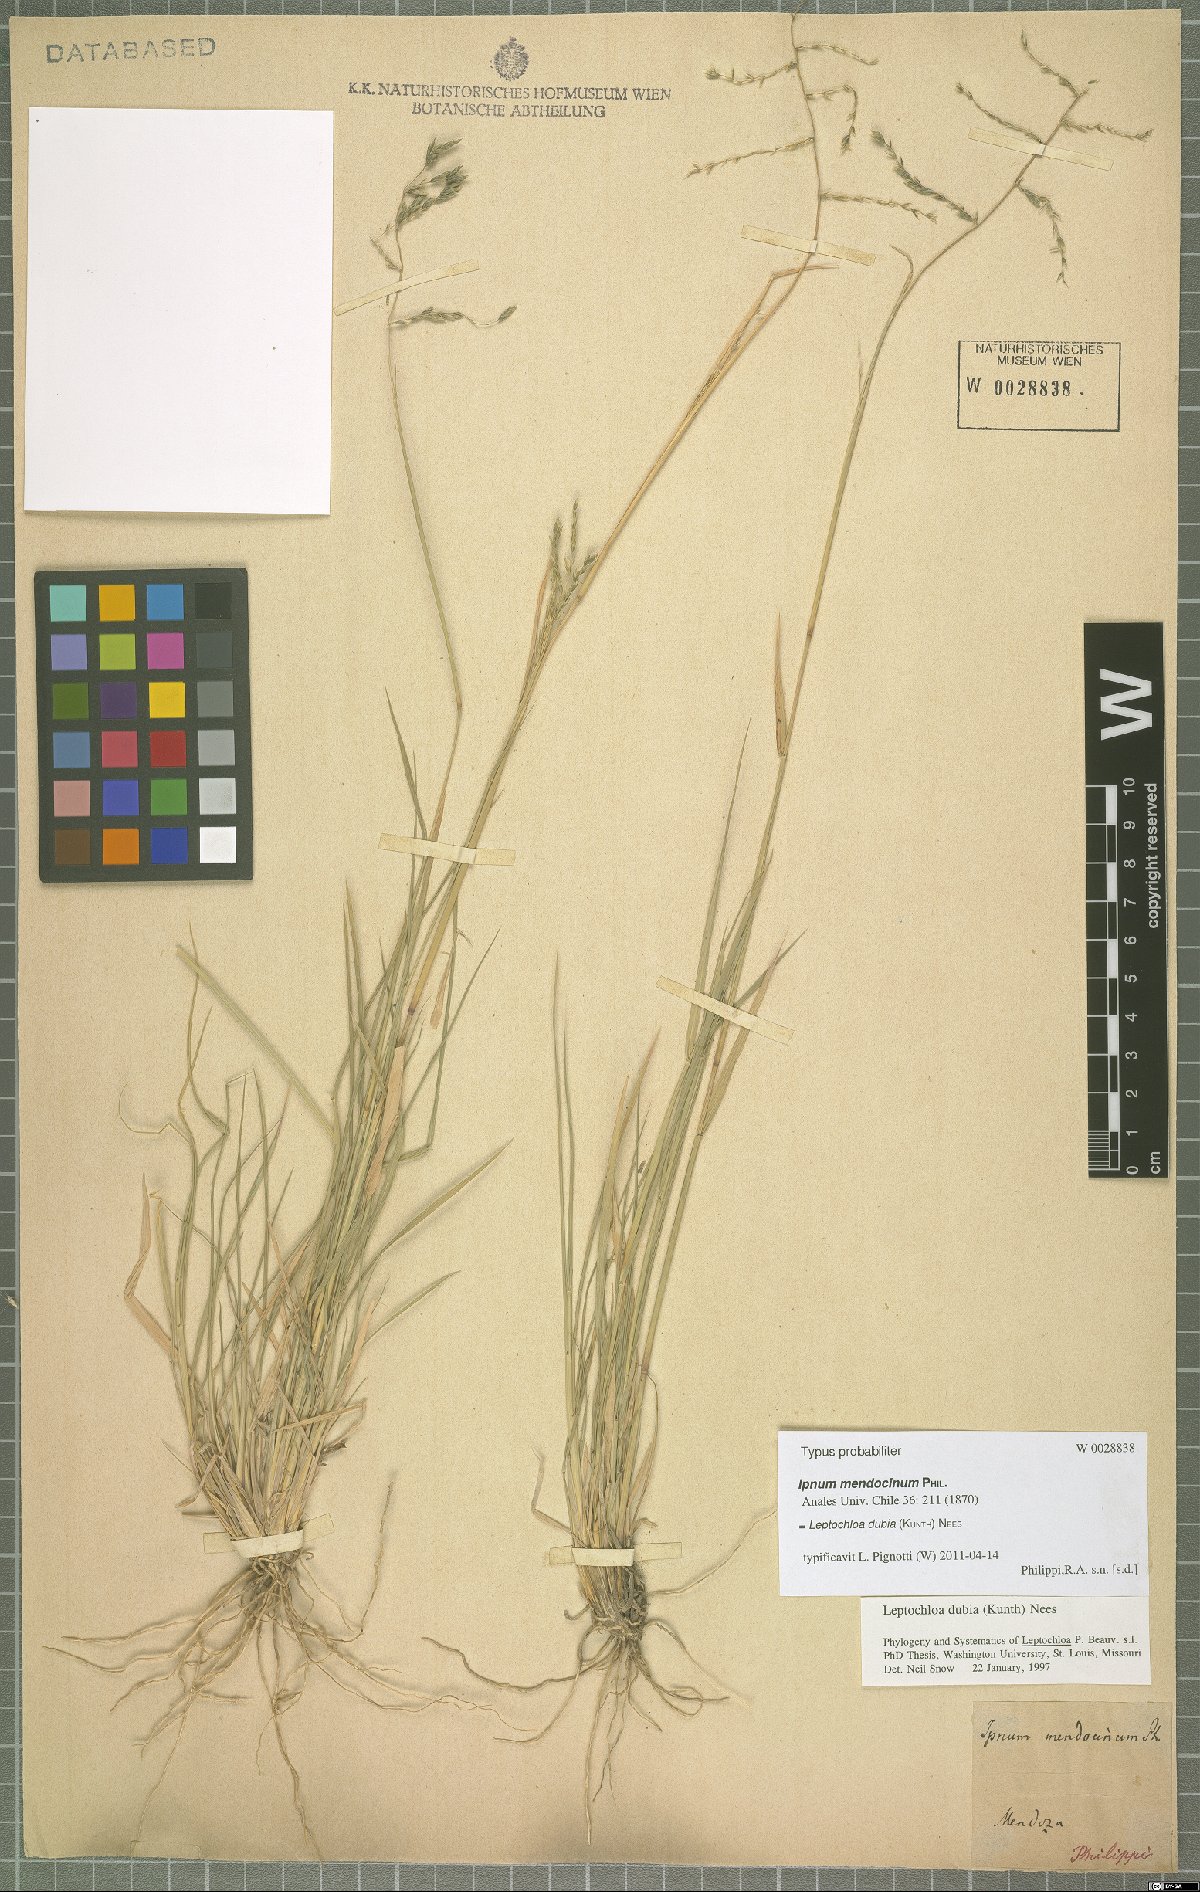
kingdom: Plantae
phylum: Tracheophyta
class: Liliopsida
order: Poales
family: Poaceae
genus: Disakisperma
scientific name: Disakisperma dubium
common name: Green sprangletop
